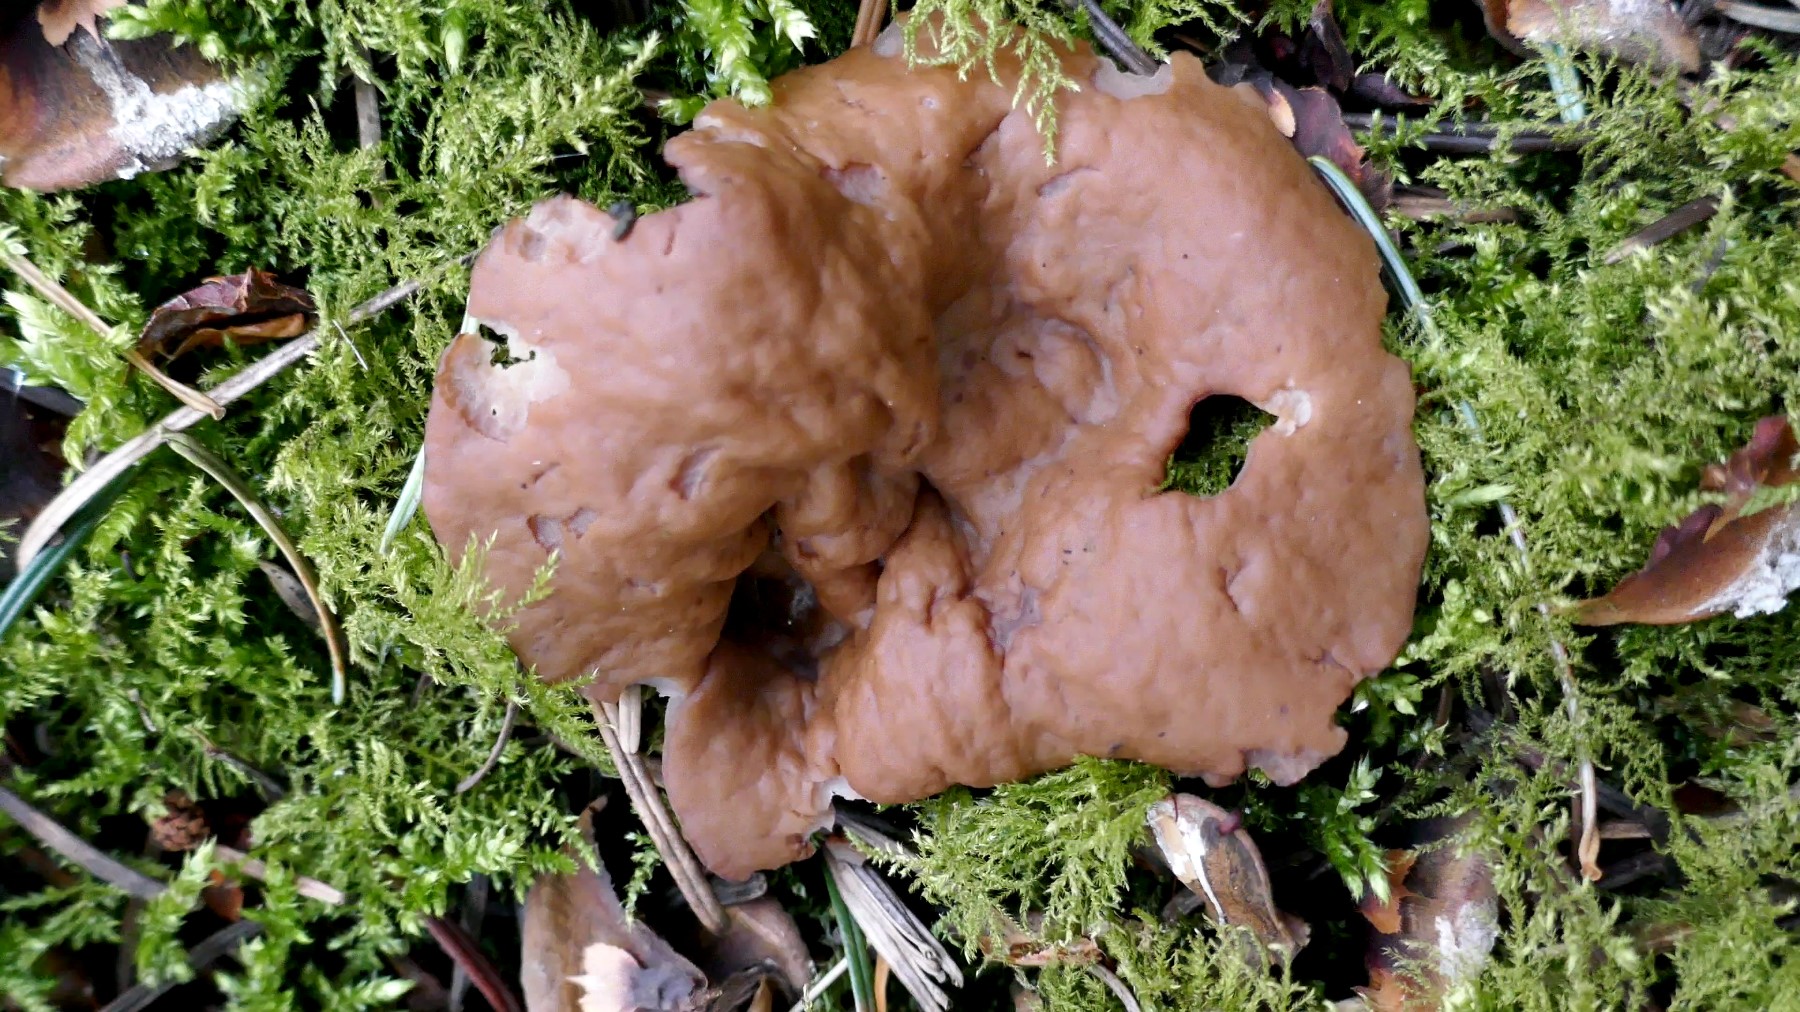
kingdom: Fungi
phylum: Ascomycota
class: Pezizomycetes
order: Pezizales
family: Discinaceae
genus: Discina
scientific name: Discina ancilis
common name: udbredt stenmorkel
